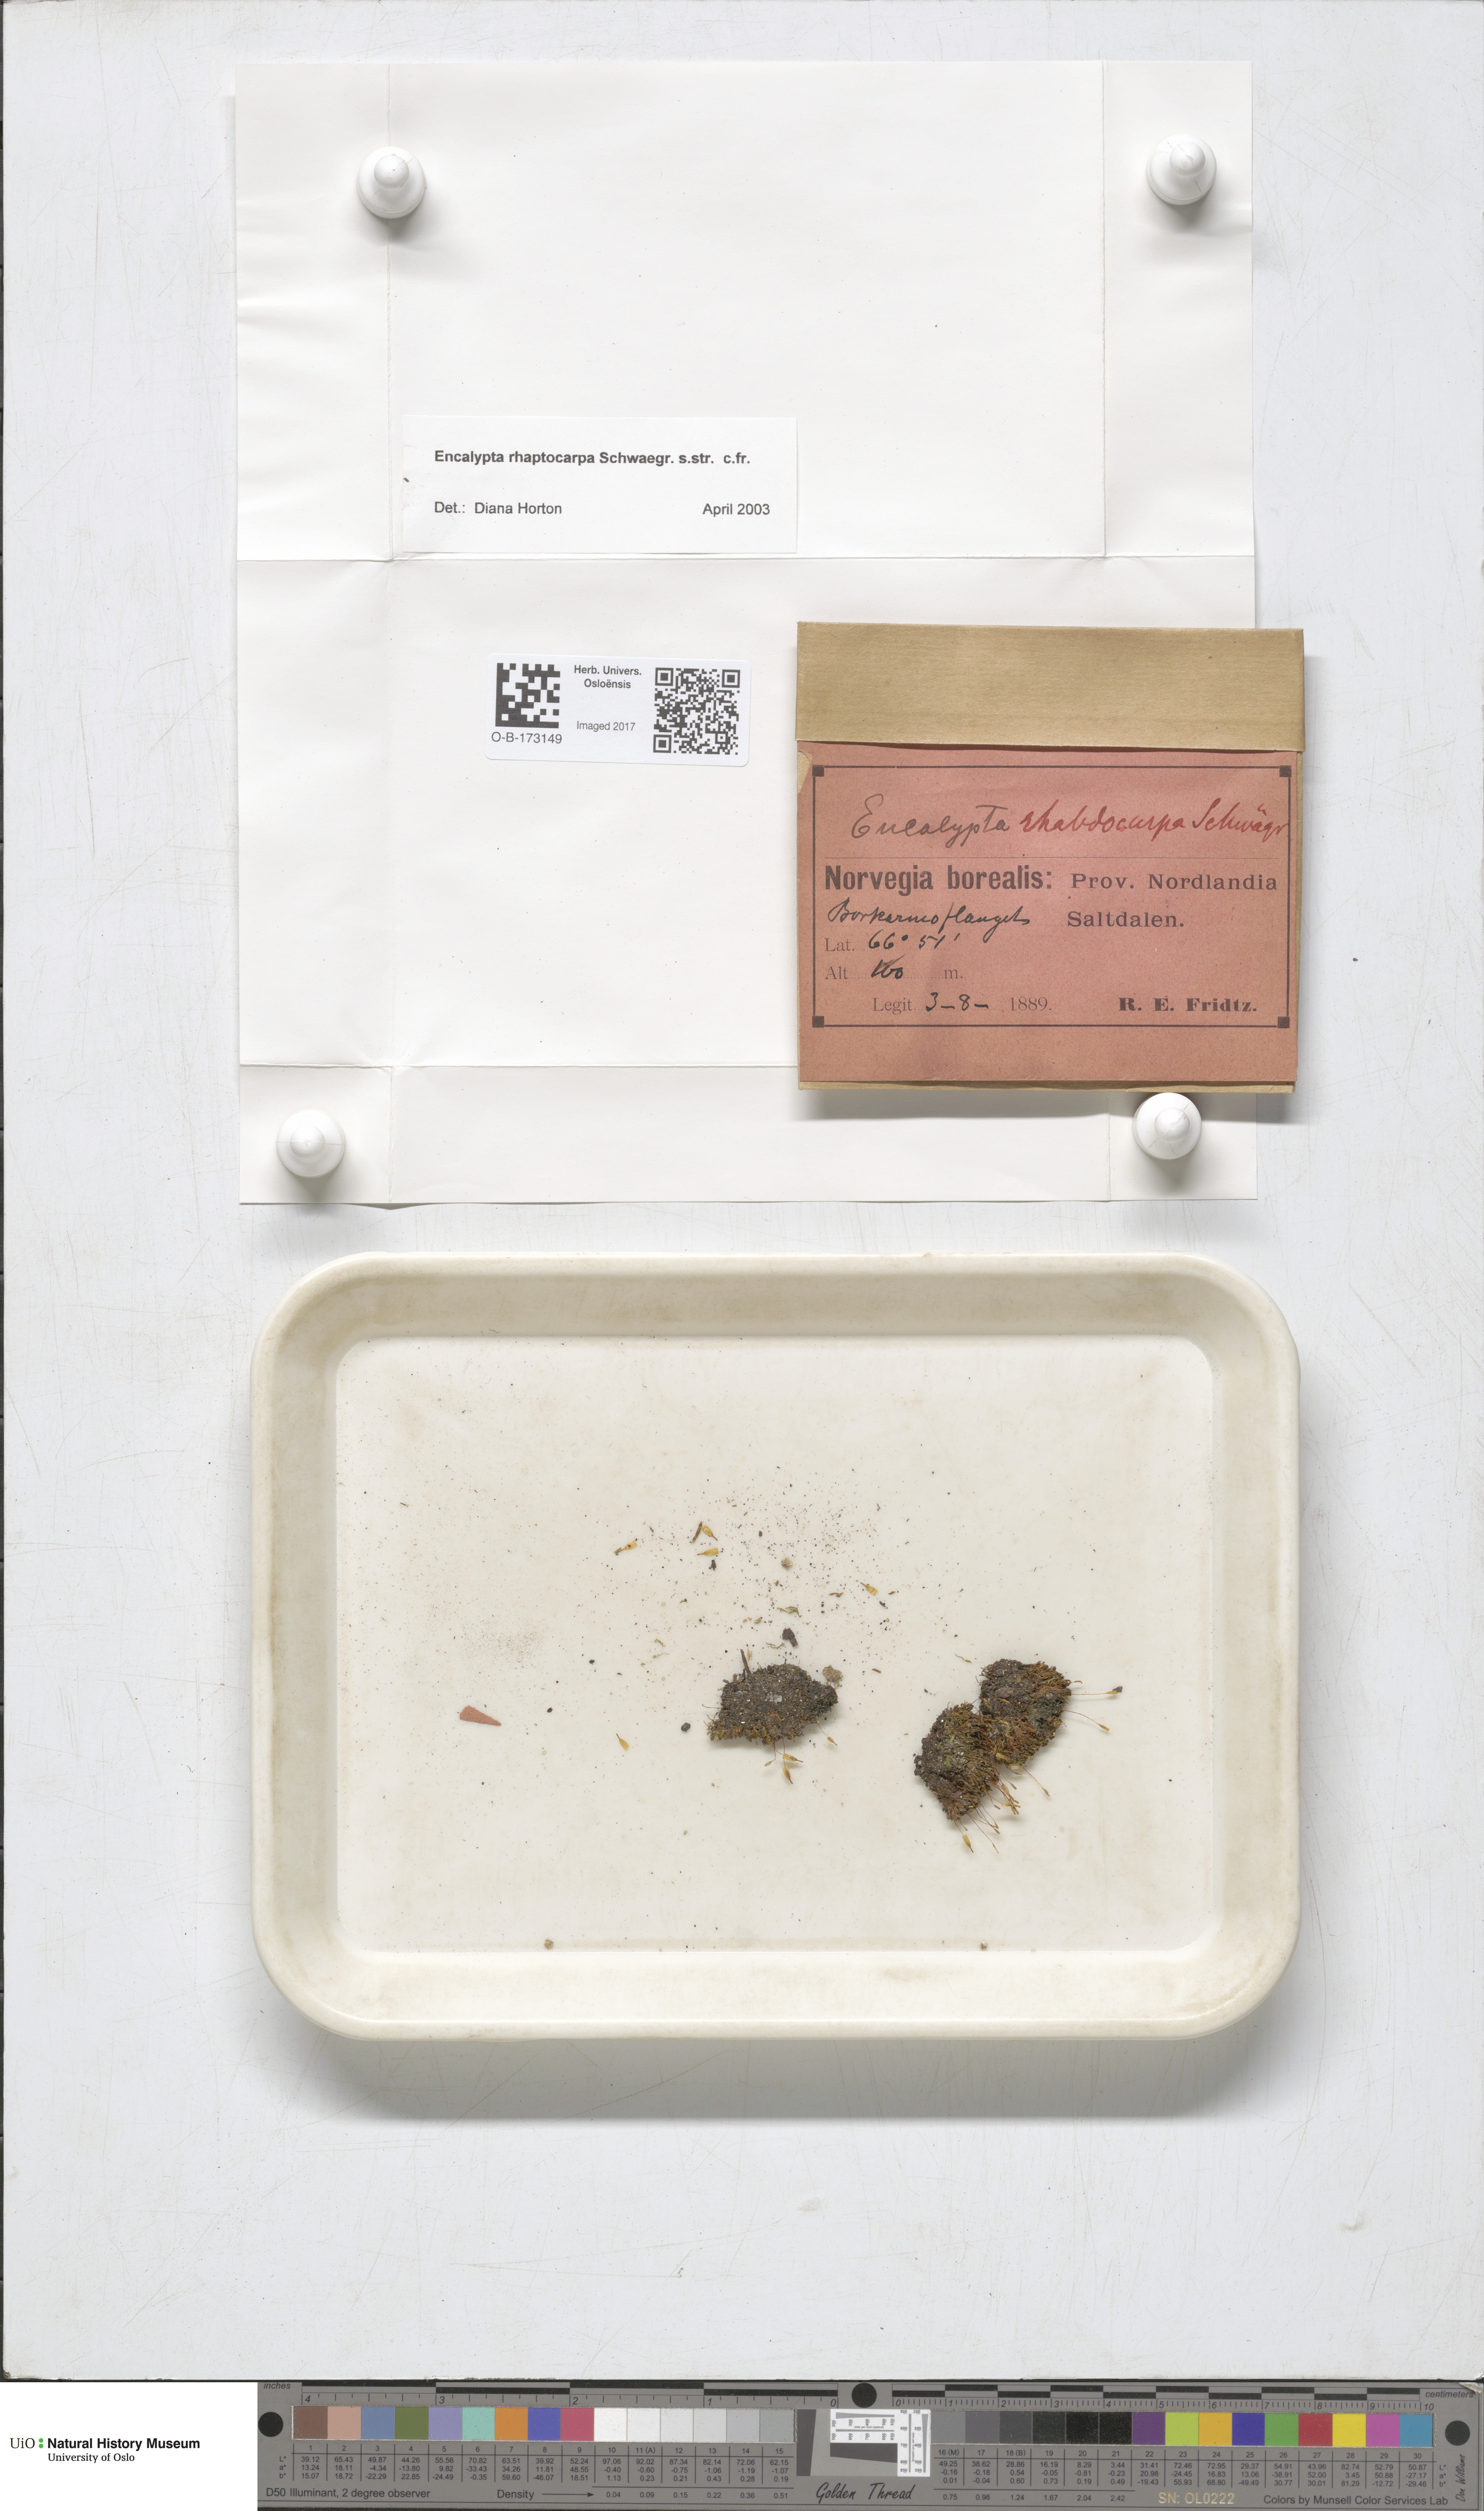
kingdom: Plantae
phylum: Bryophyta
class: Bryopsida
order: Encalyptales
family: Encalyptaceae
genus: Encalypta
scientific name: Encalypta rhaptocarpa
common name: Ribbed extinguisher moss
